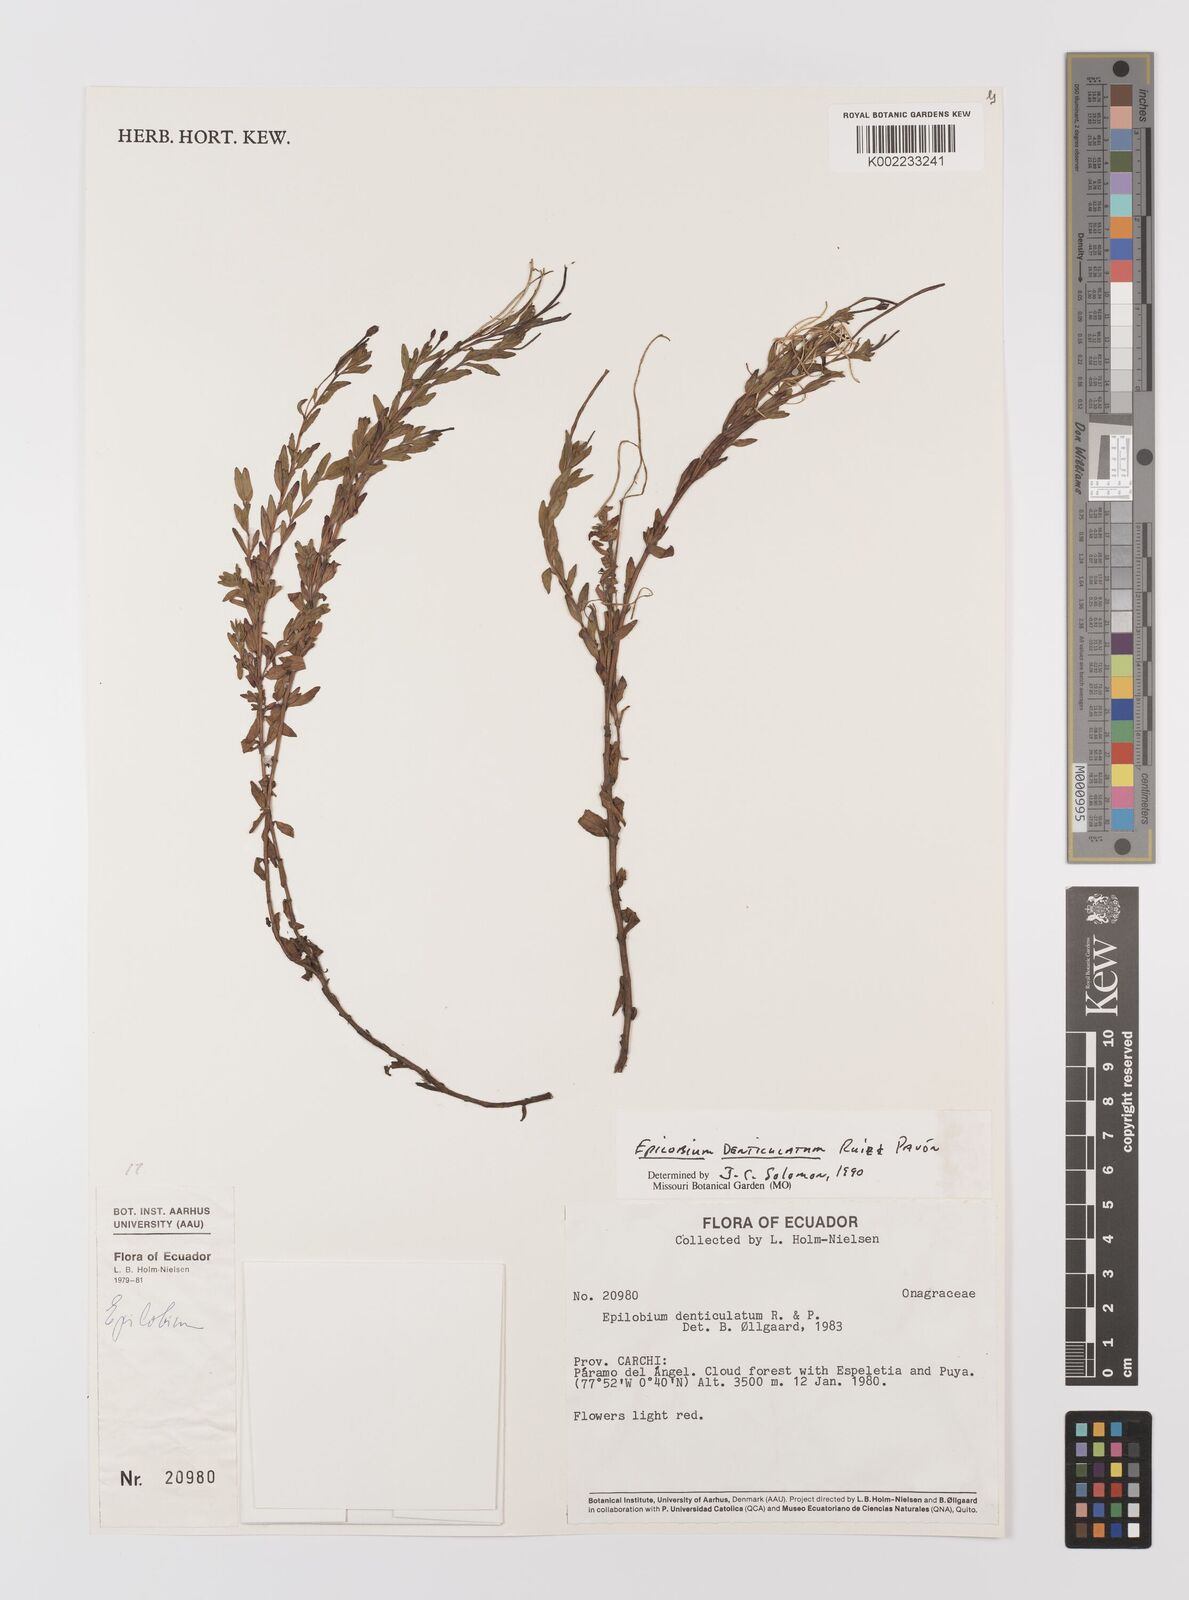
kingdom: Plantae
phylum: Tracheophyta
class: Magnoliopsida
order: Myrtales
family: Onagraceae
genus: Epilobium
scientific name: Epilobium denticulatum
